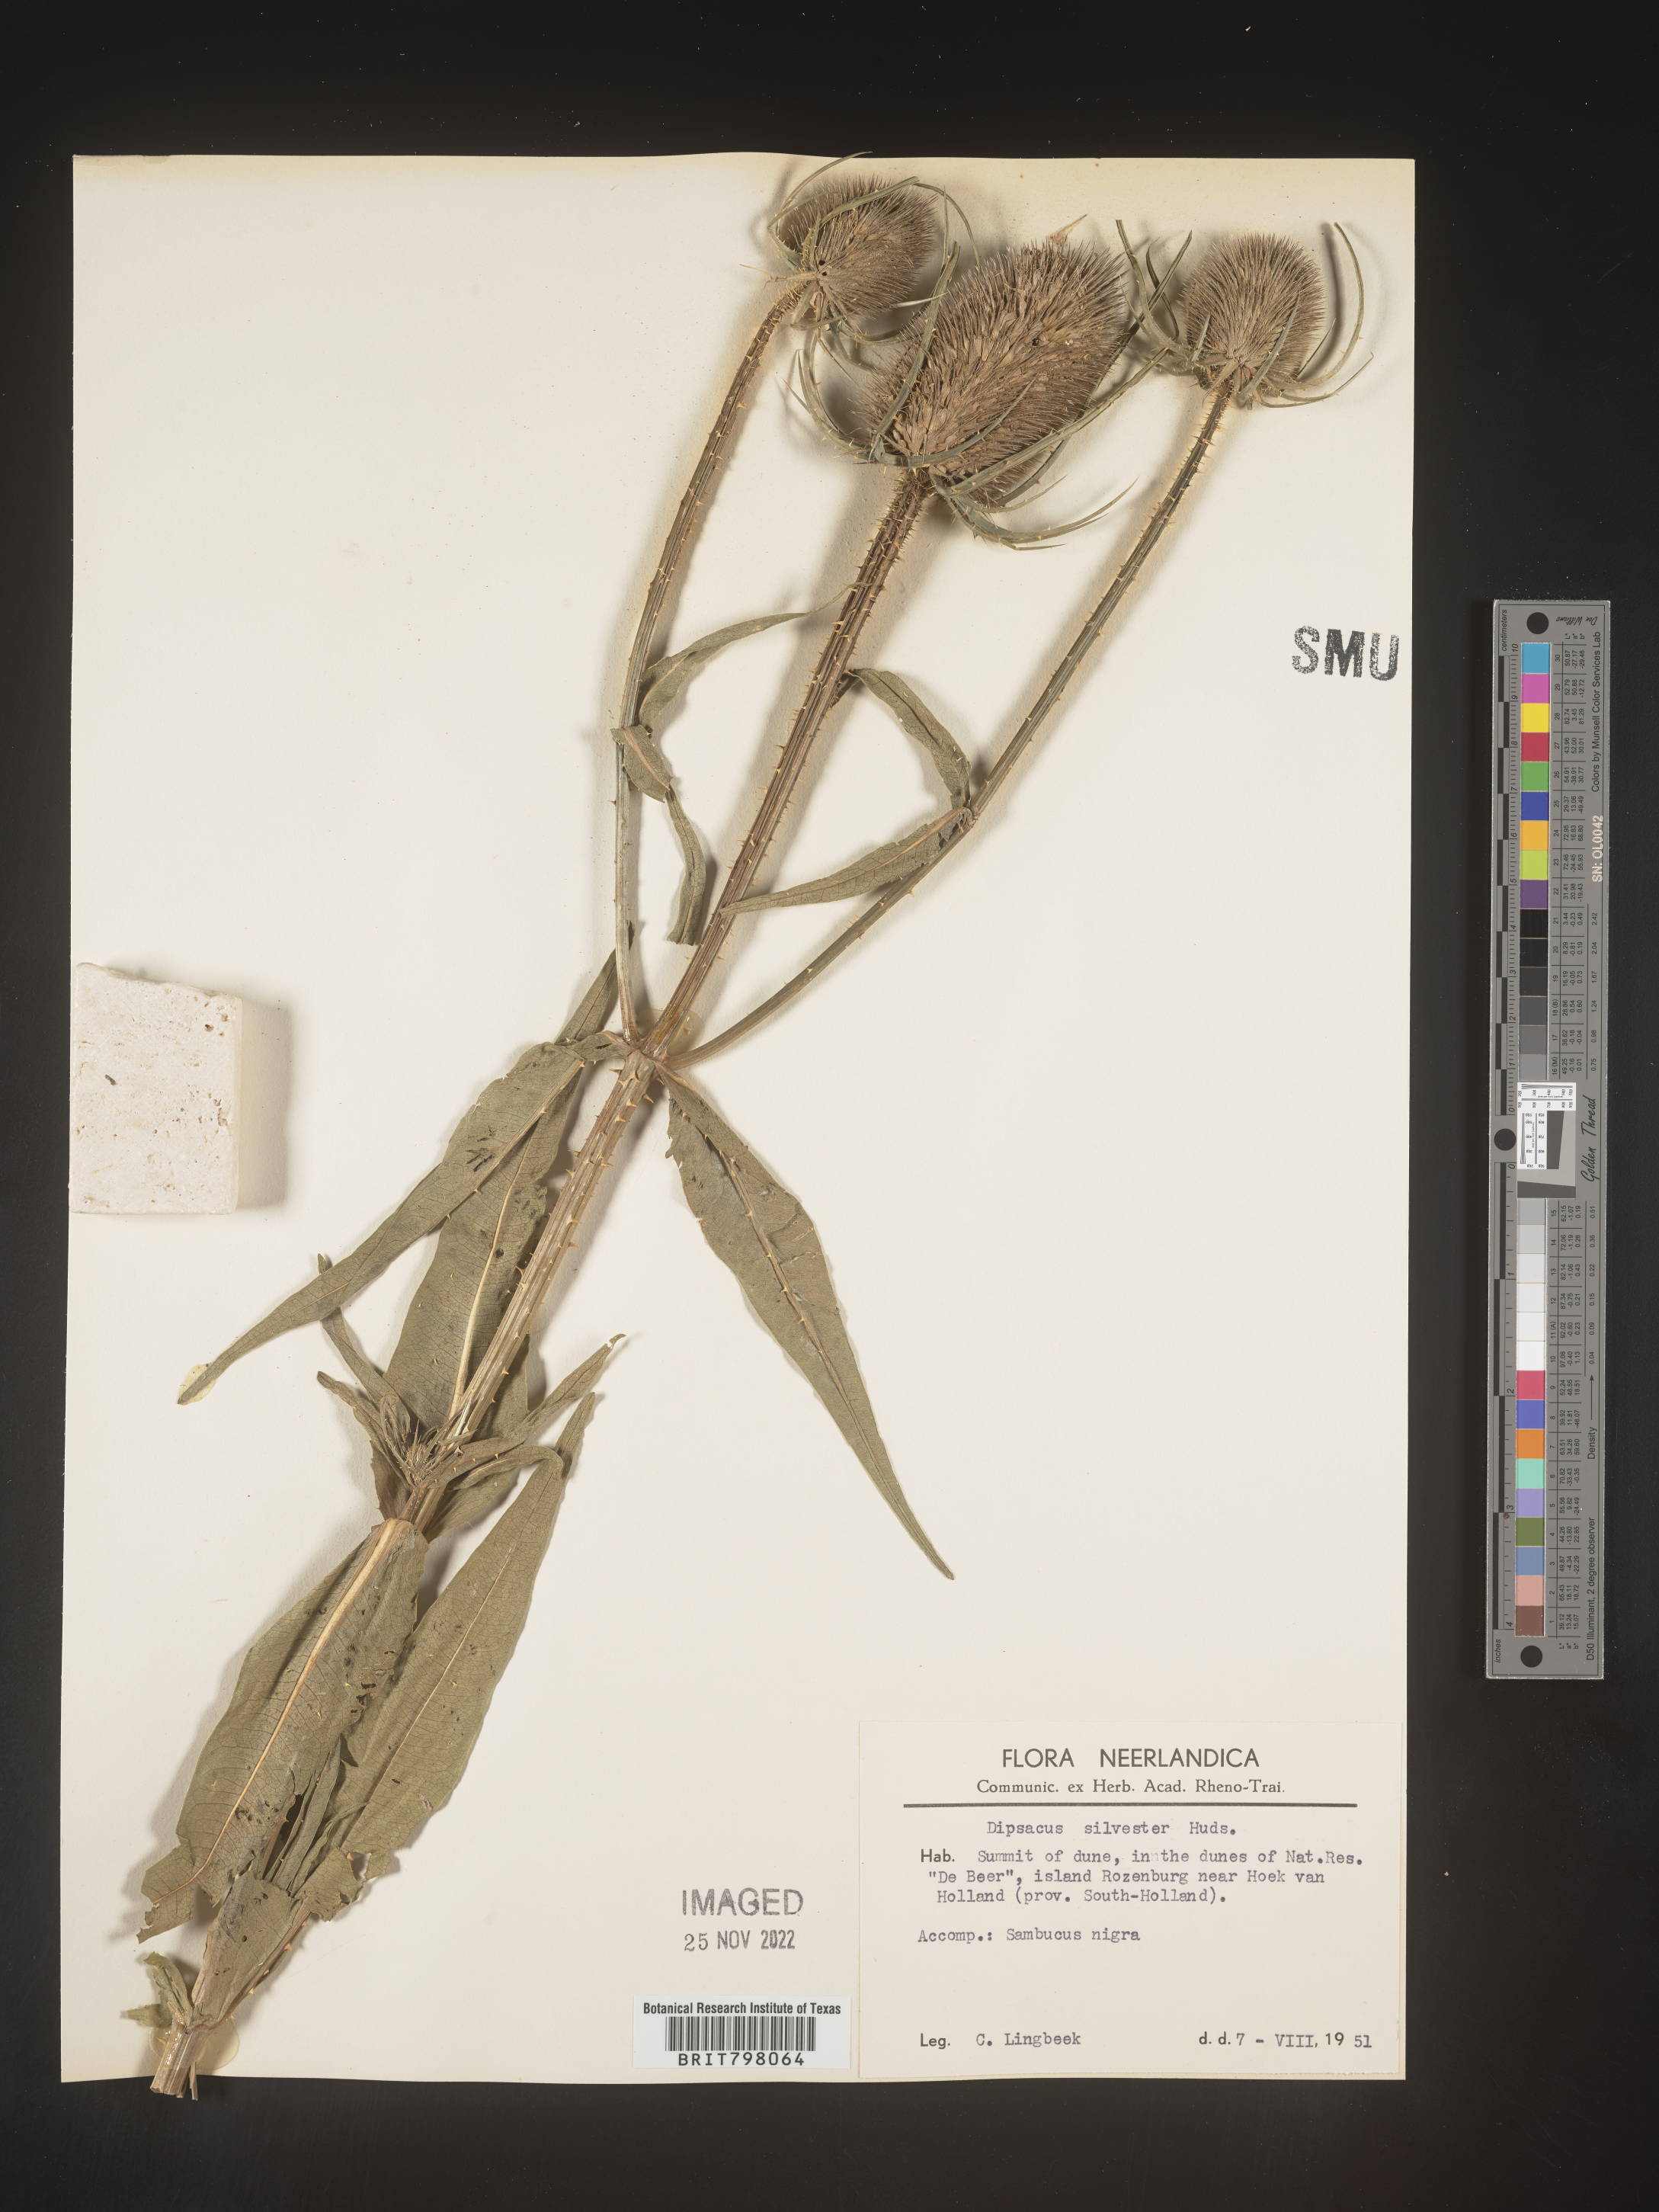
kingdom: Plantae
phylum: Tracheophyta
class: Magnoliopsida
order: Dipsacales
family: Caprifoliaceae
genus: Dipsacus
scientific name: Dipsacus
